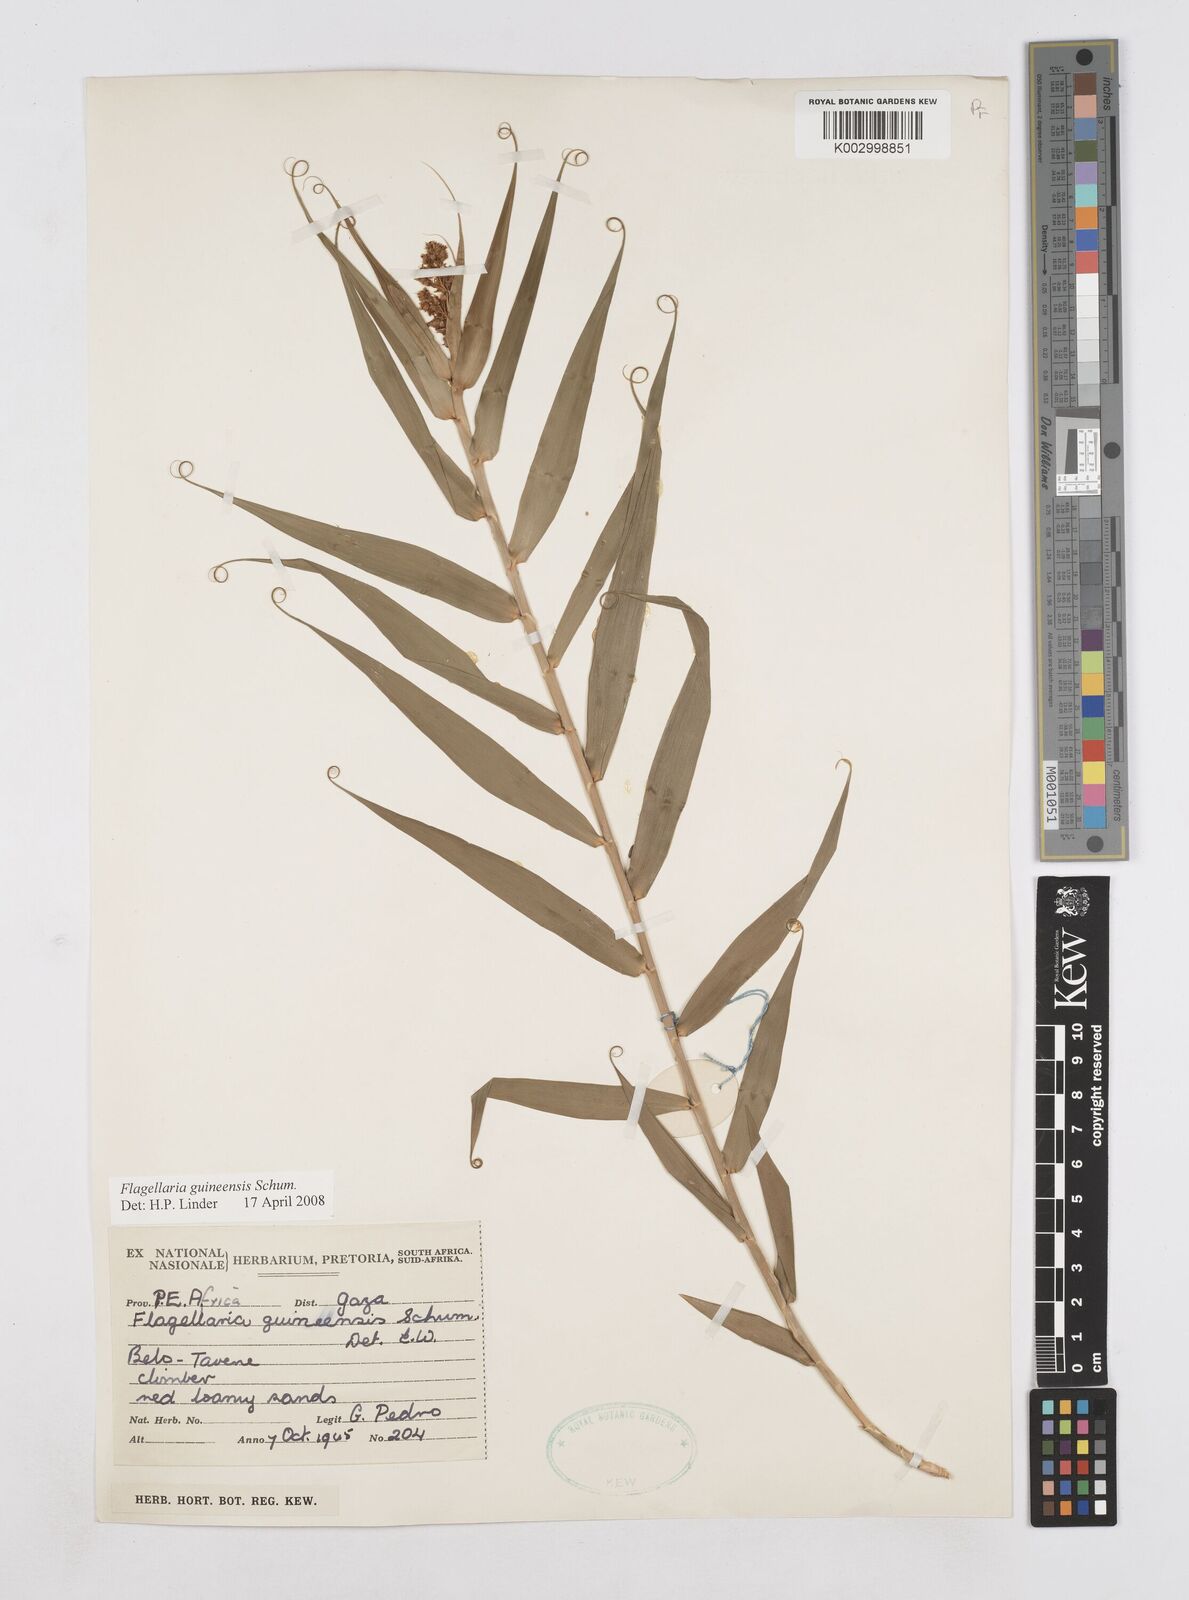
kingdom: Plantae
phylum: Tracheophyta
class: Liliopsida
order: Poales
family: Flagellariaceae
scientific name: Flagellariaceae
